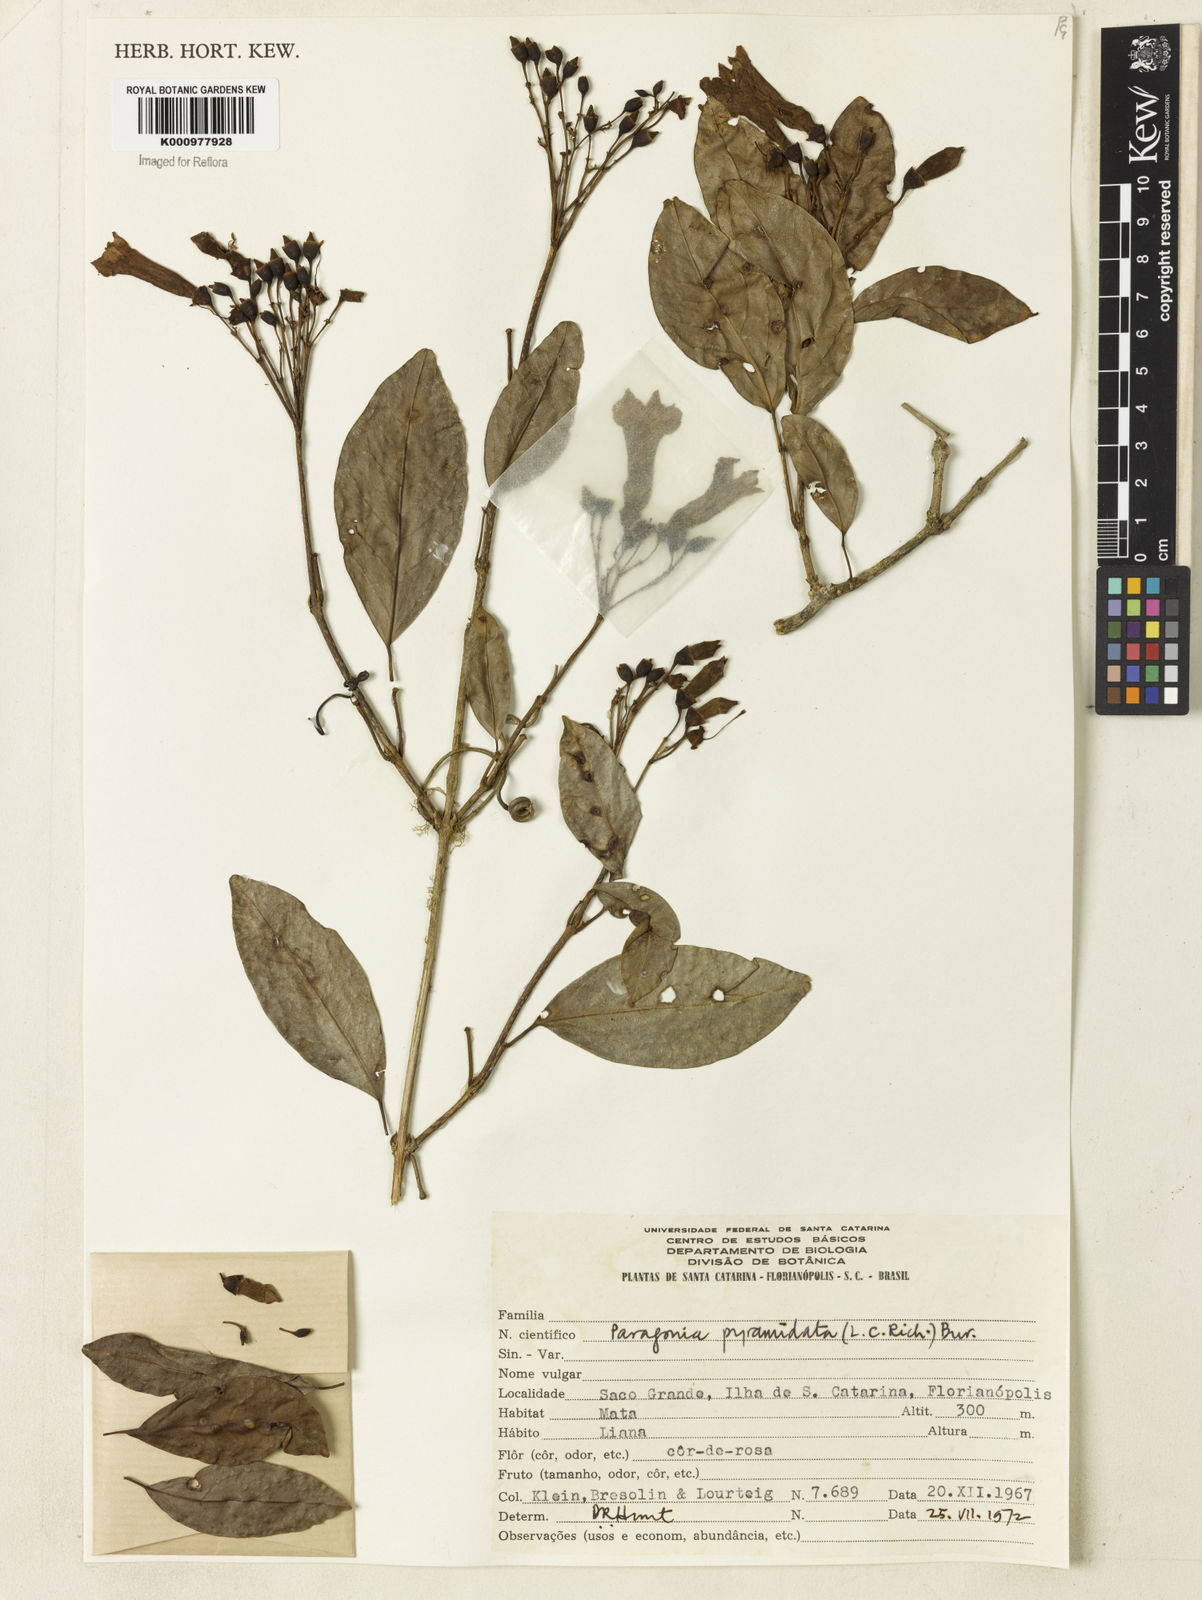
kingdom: Plantae
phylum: Tracheophyta
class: Magnoliopsida
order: Lamiales
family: Bignoniaceae
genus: Tanaecium
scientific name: Tanaecium pyramidatum
